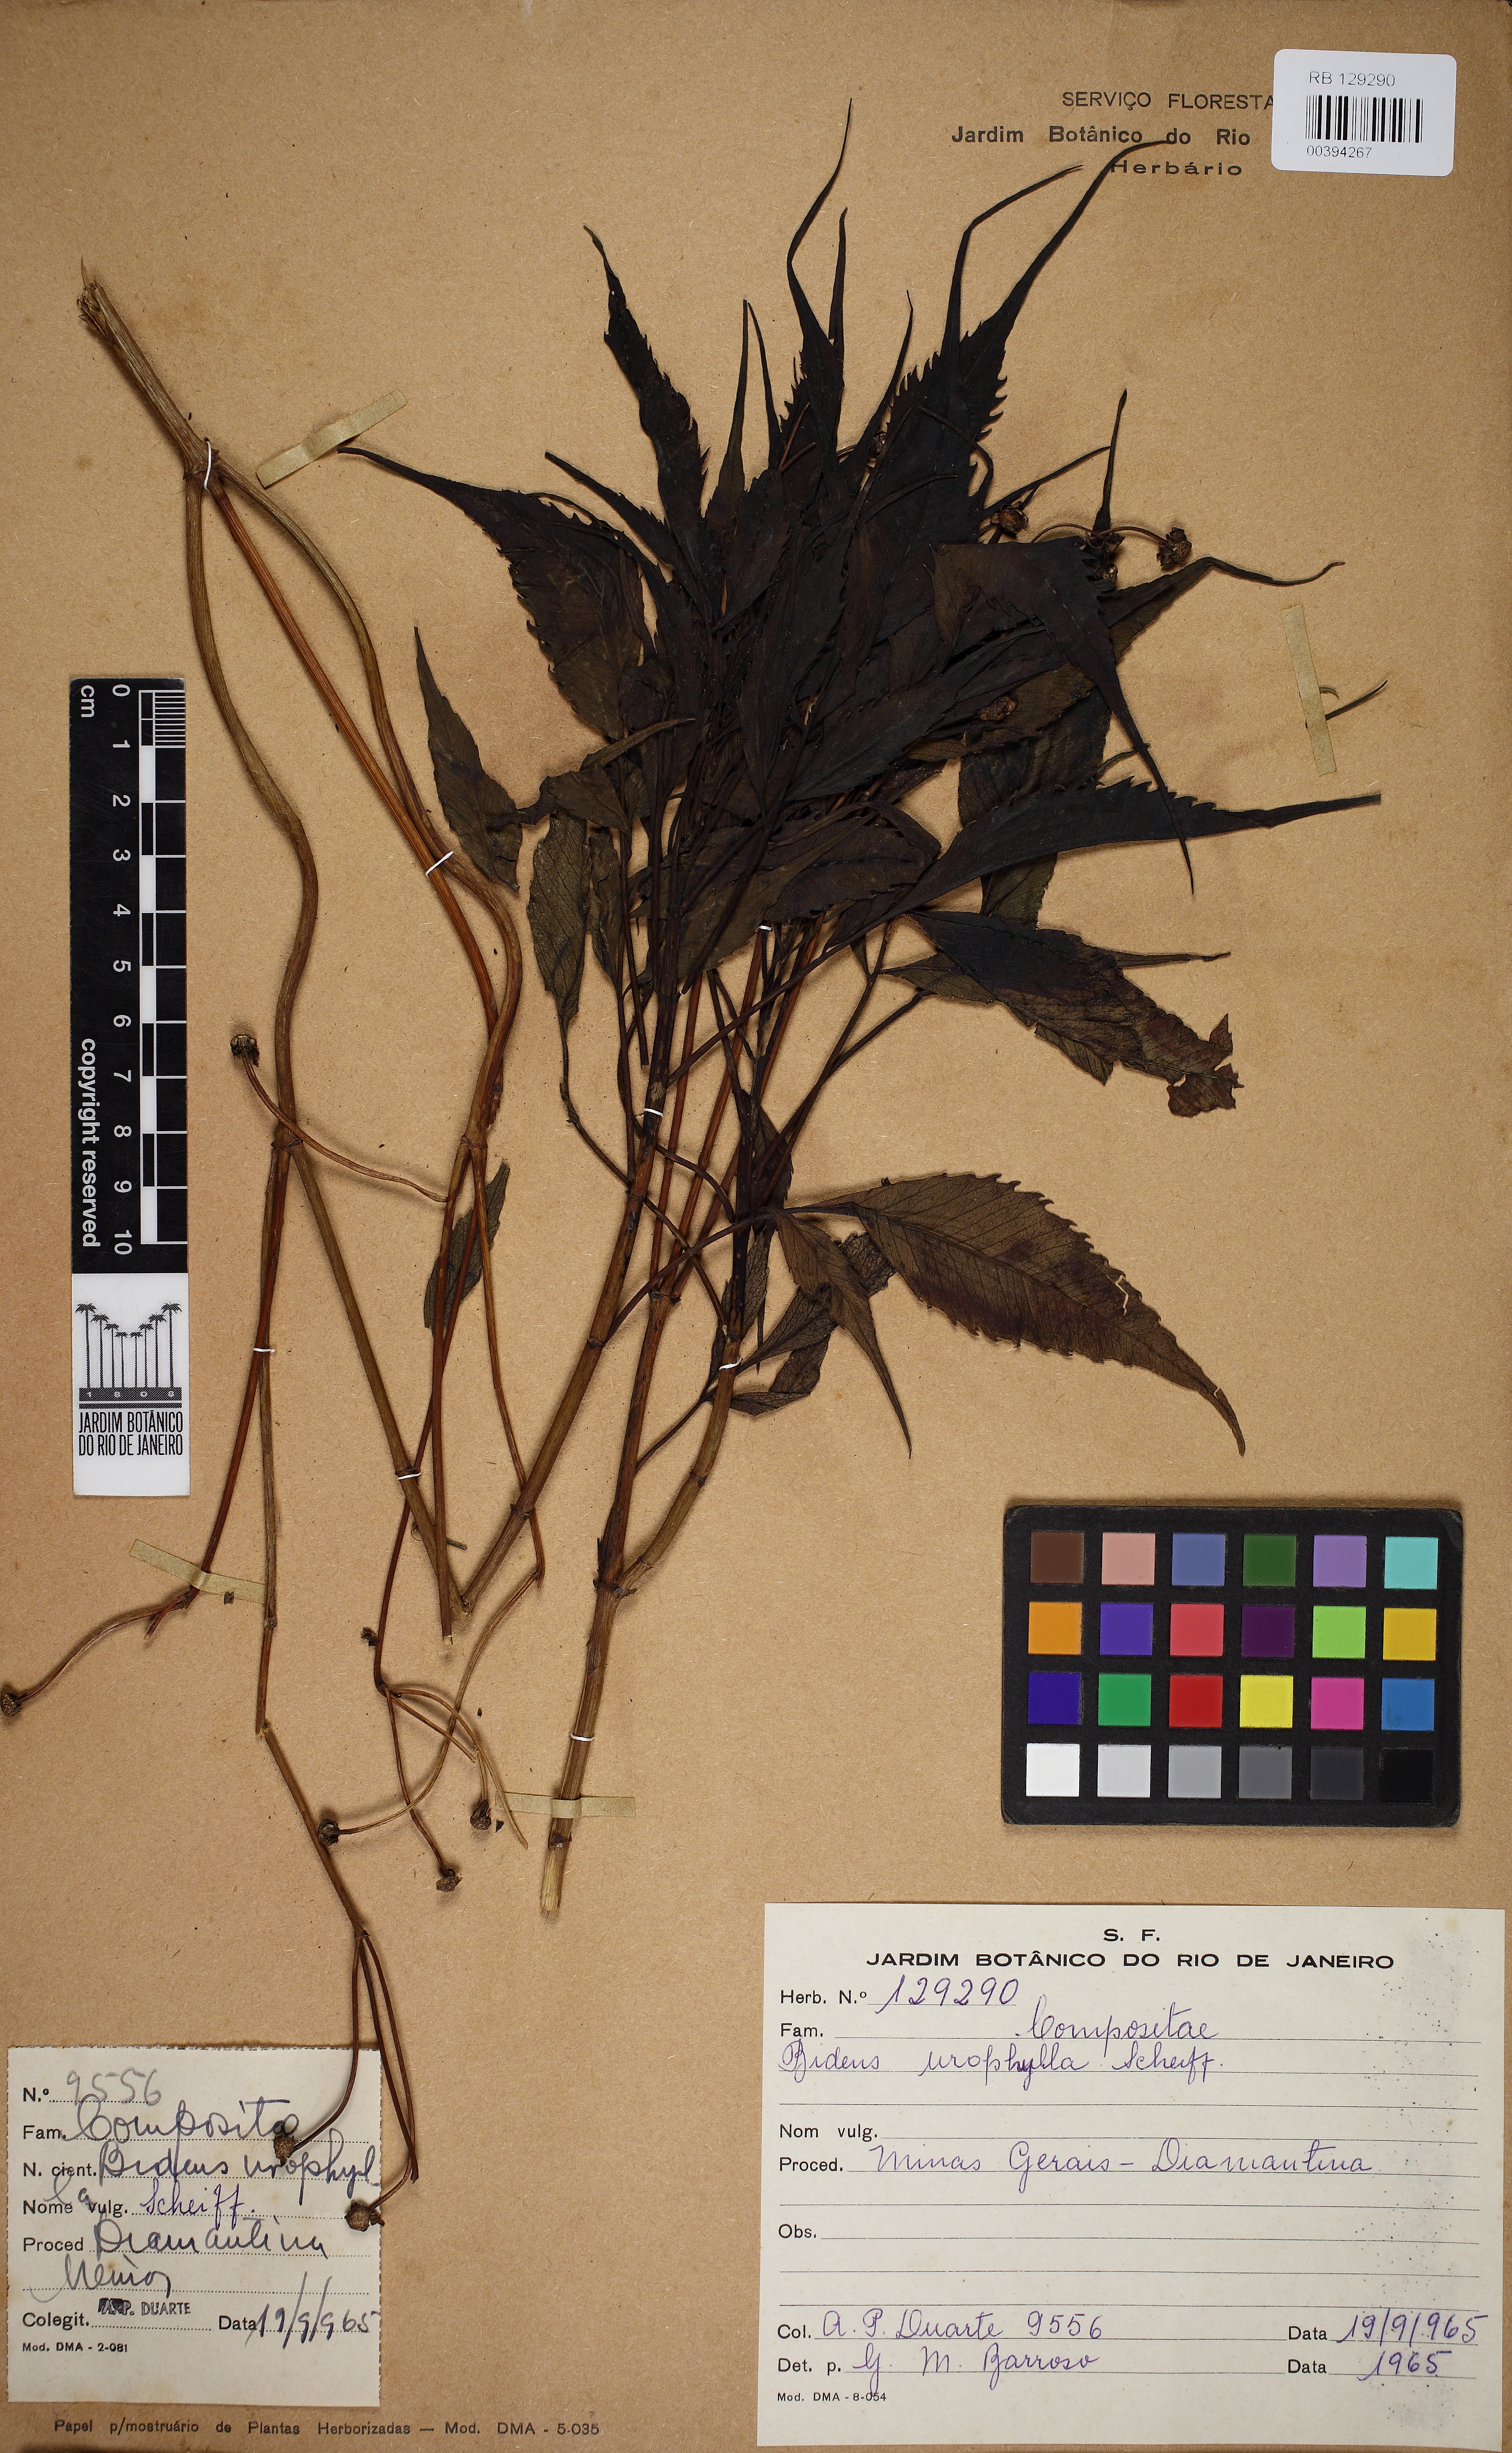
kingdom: Plantae
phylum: Tracheophyta
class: Magnoliopsida
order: Asterales
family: Asteraceae
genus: Bidens
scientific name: Bidens urophylla
